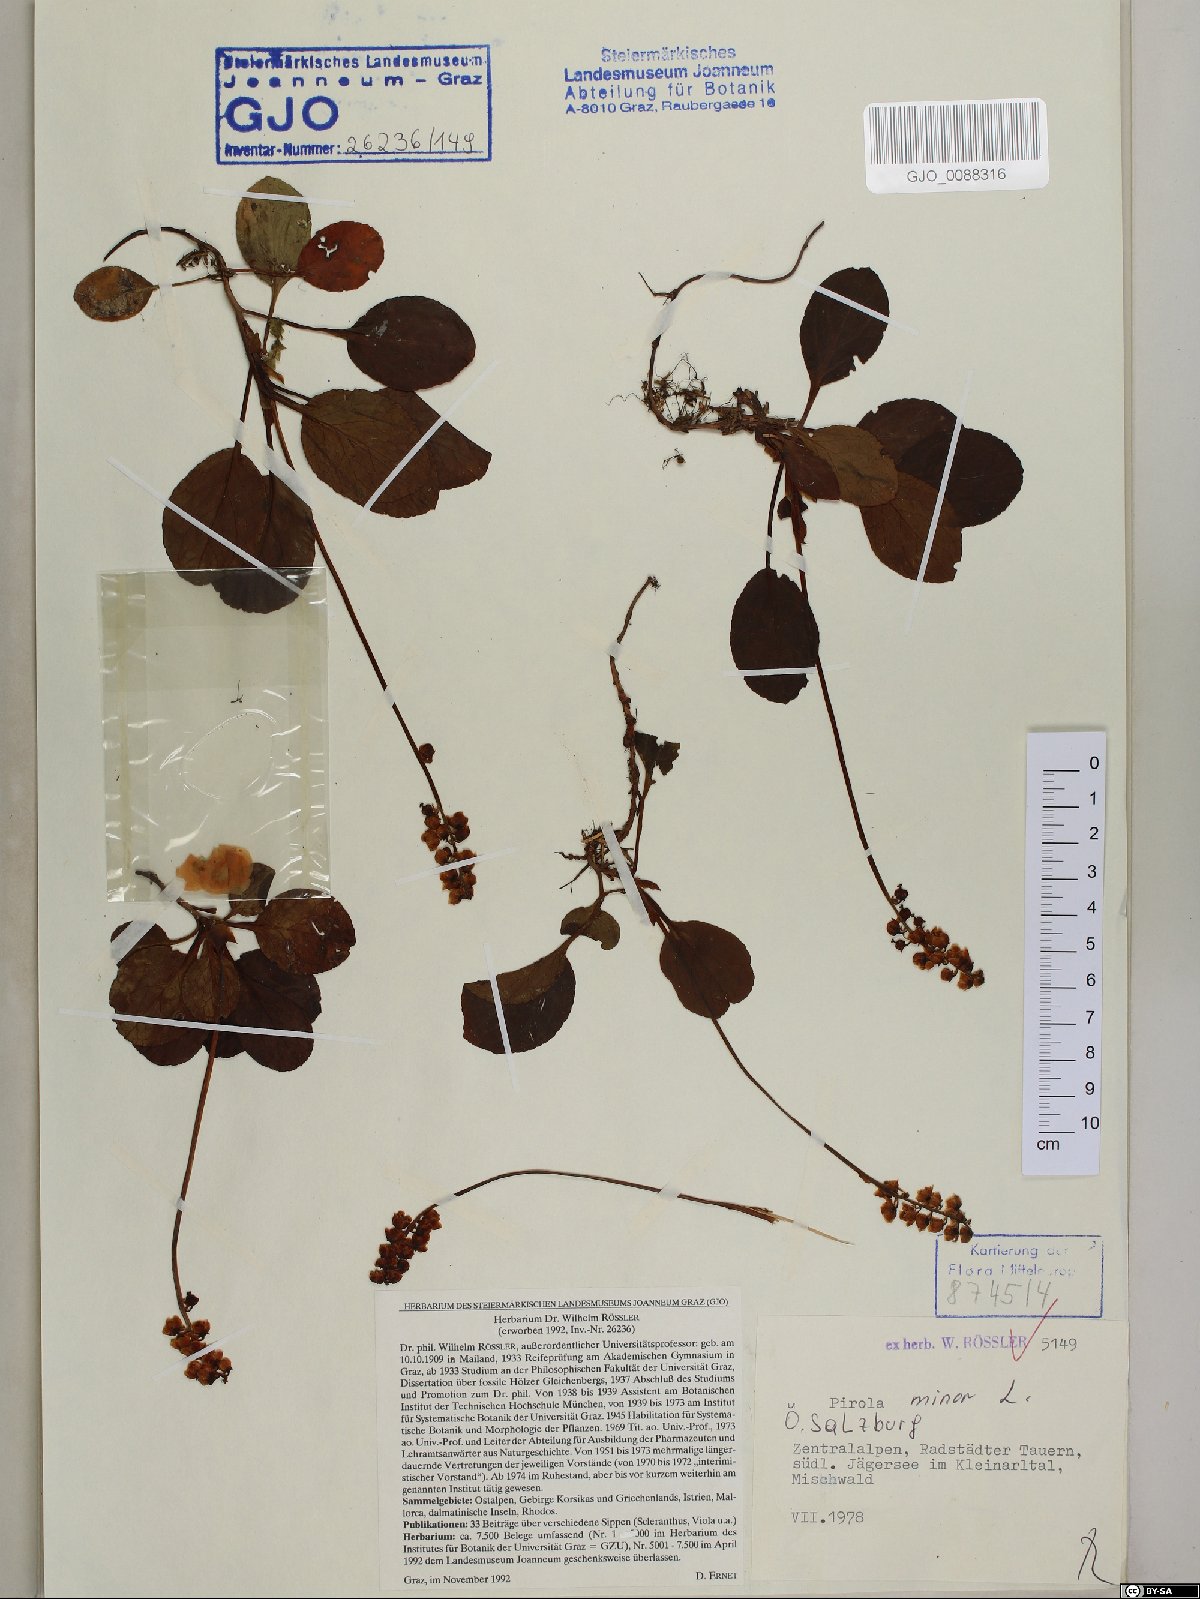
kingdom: Plantae
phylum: Tracheophyta
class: Magnoliopsida
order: Ericales
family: Ericaceae
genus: Pyrola
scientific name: Pyrola minor
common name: Common wintergreen
